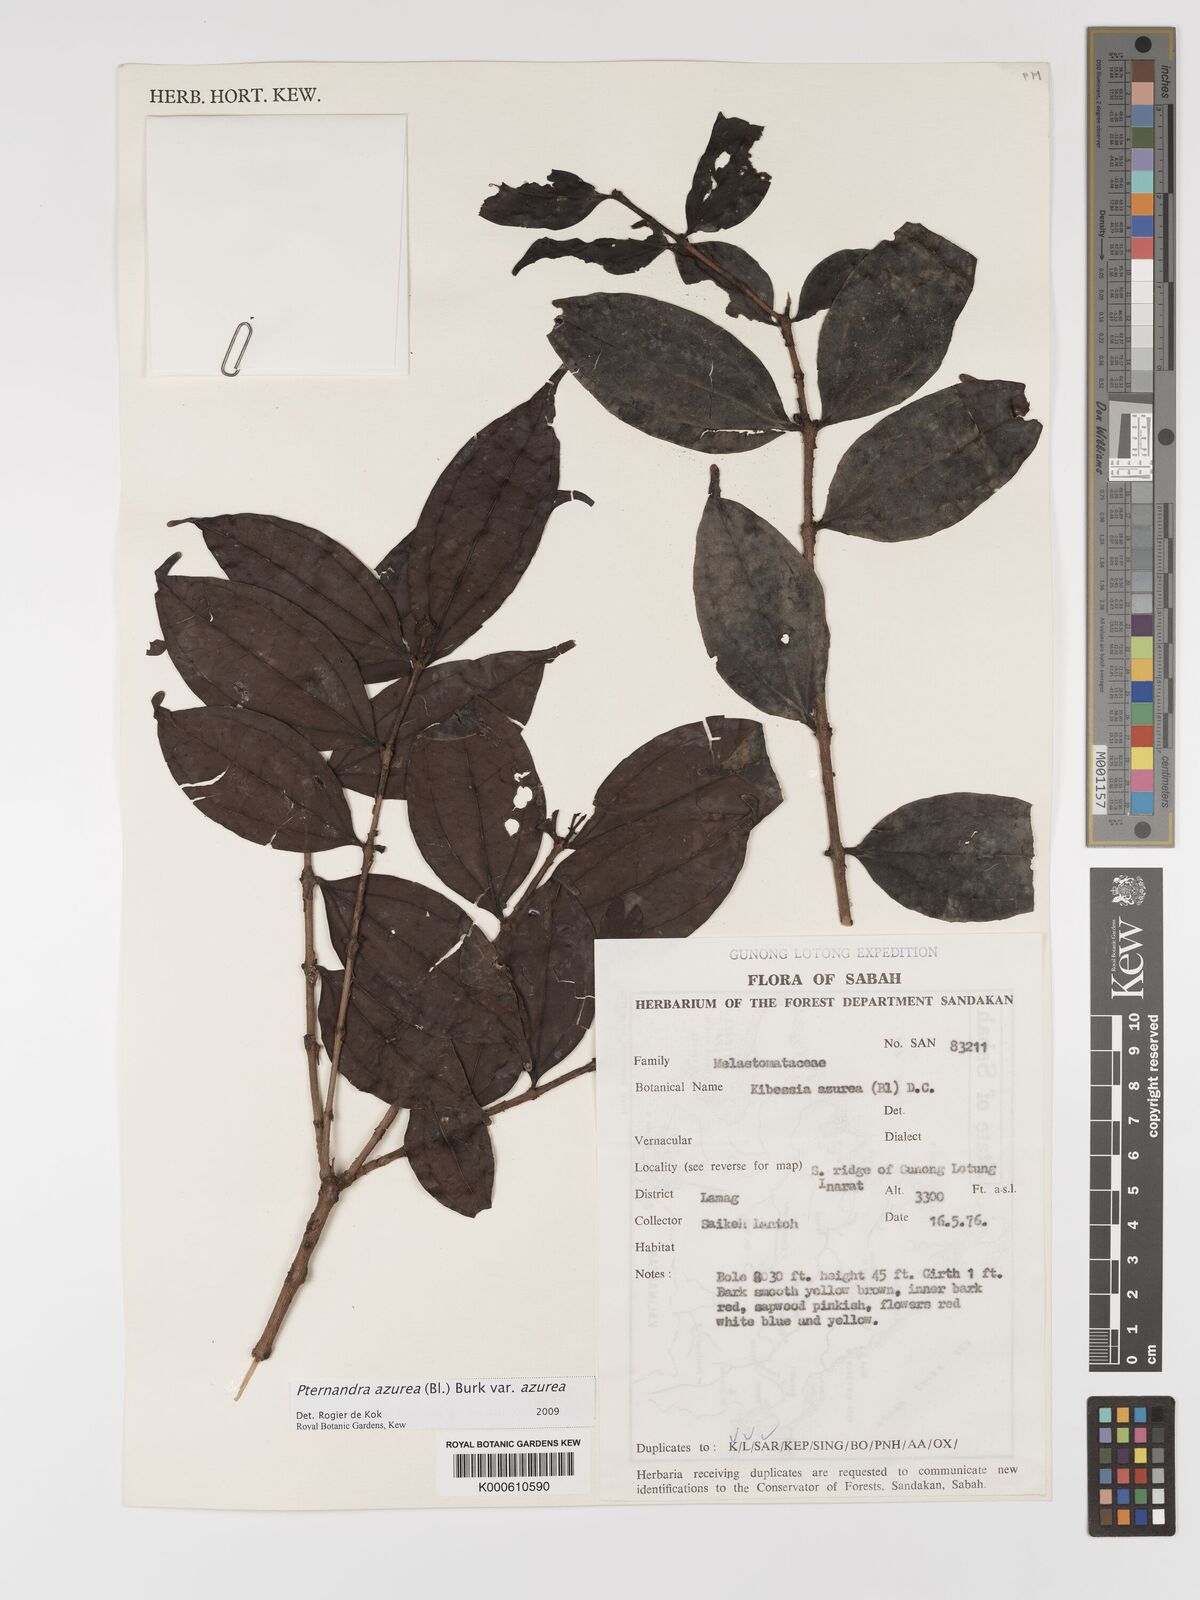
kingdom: Plantae
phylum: Tracheophyta
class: Magnoliopsida
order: Myrtales
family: Melastomataceae
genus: Pternandra
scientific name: Pternandra azurea
